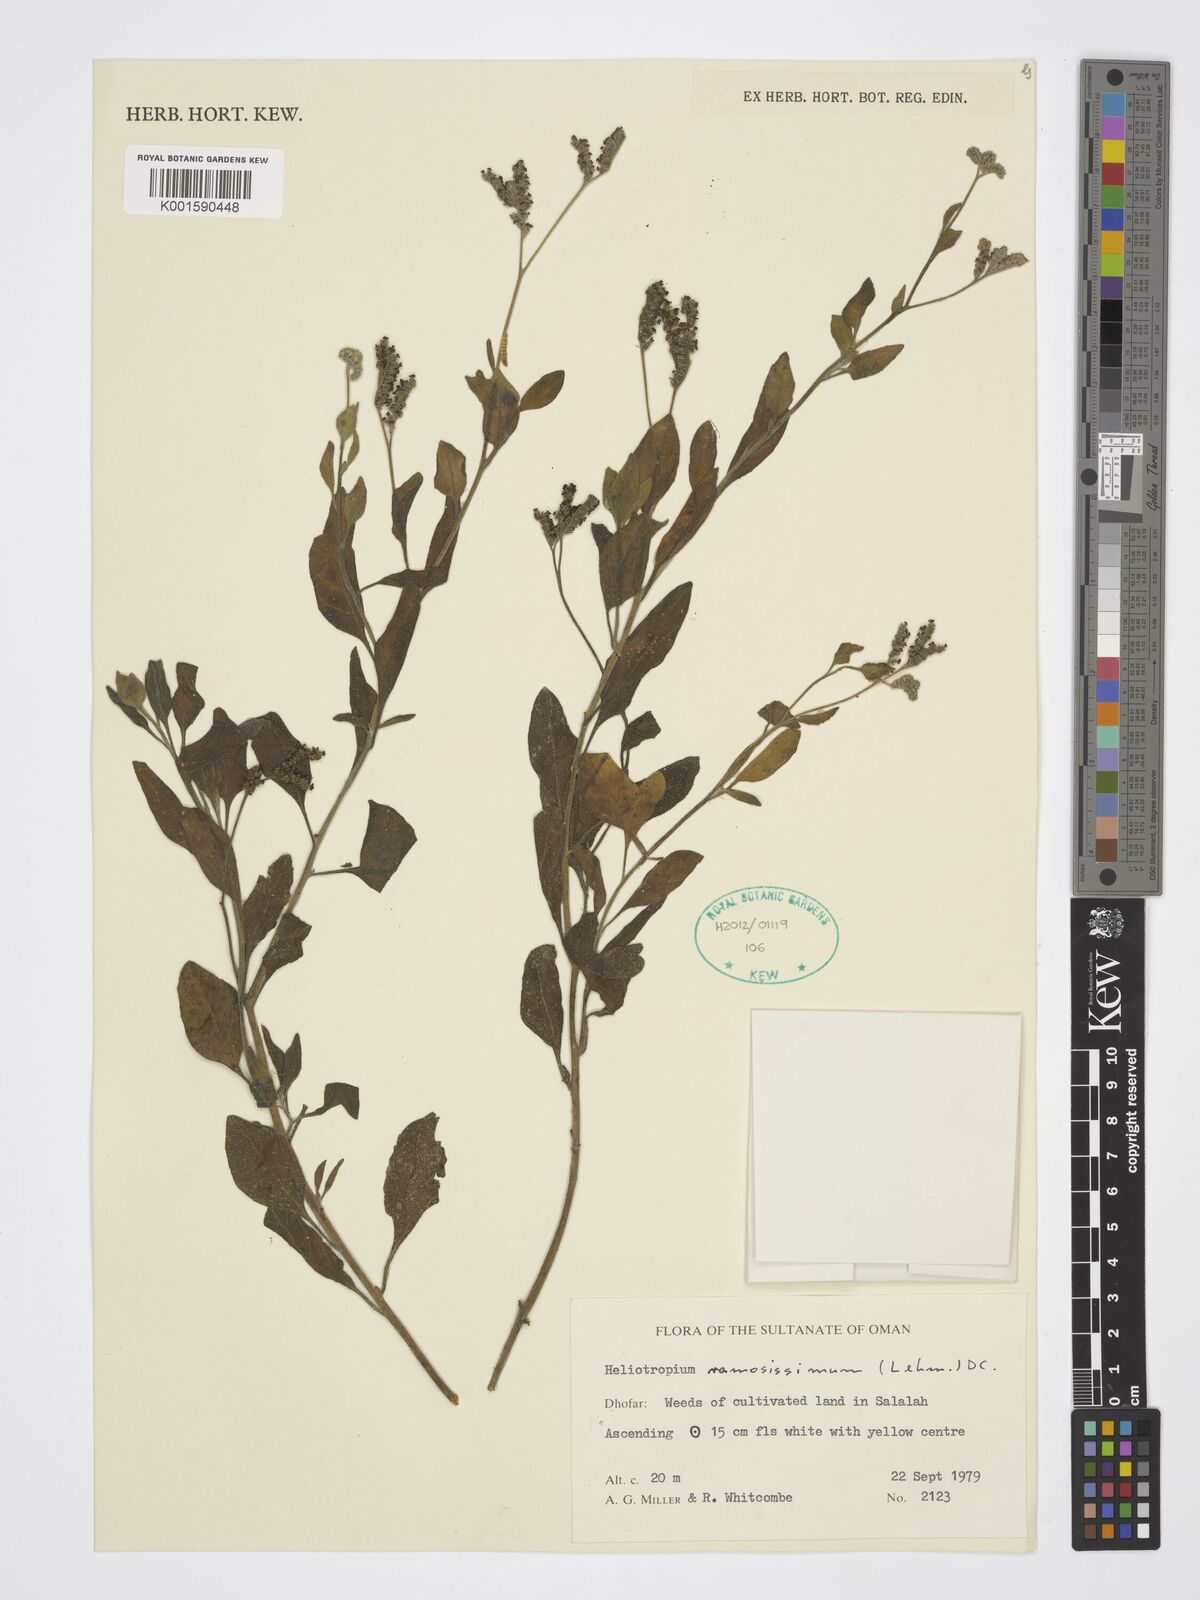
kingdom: Plantae
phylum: Tracheophyta
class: Magnoliopsida
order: Boraginales
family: Heliotropiaceae
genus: Heliotropium
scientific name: Heliotropium ramosissimum
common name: Wavy heliotrope
